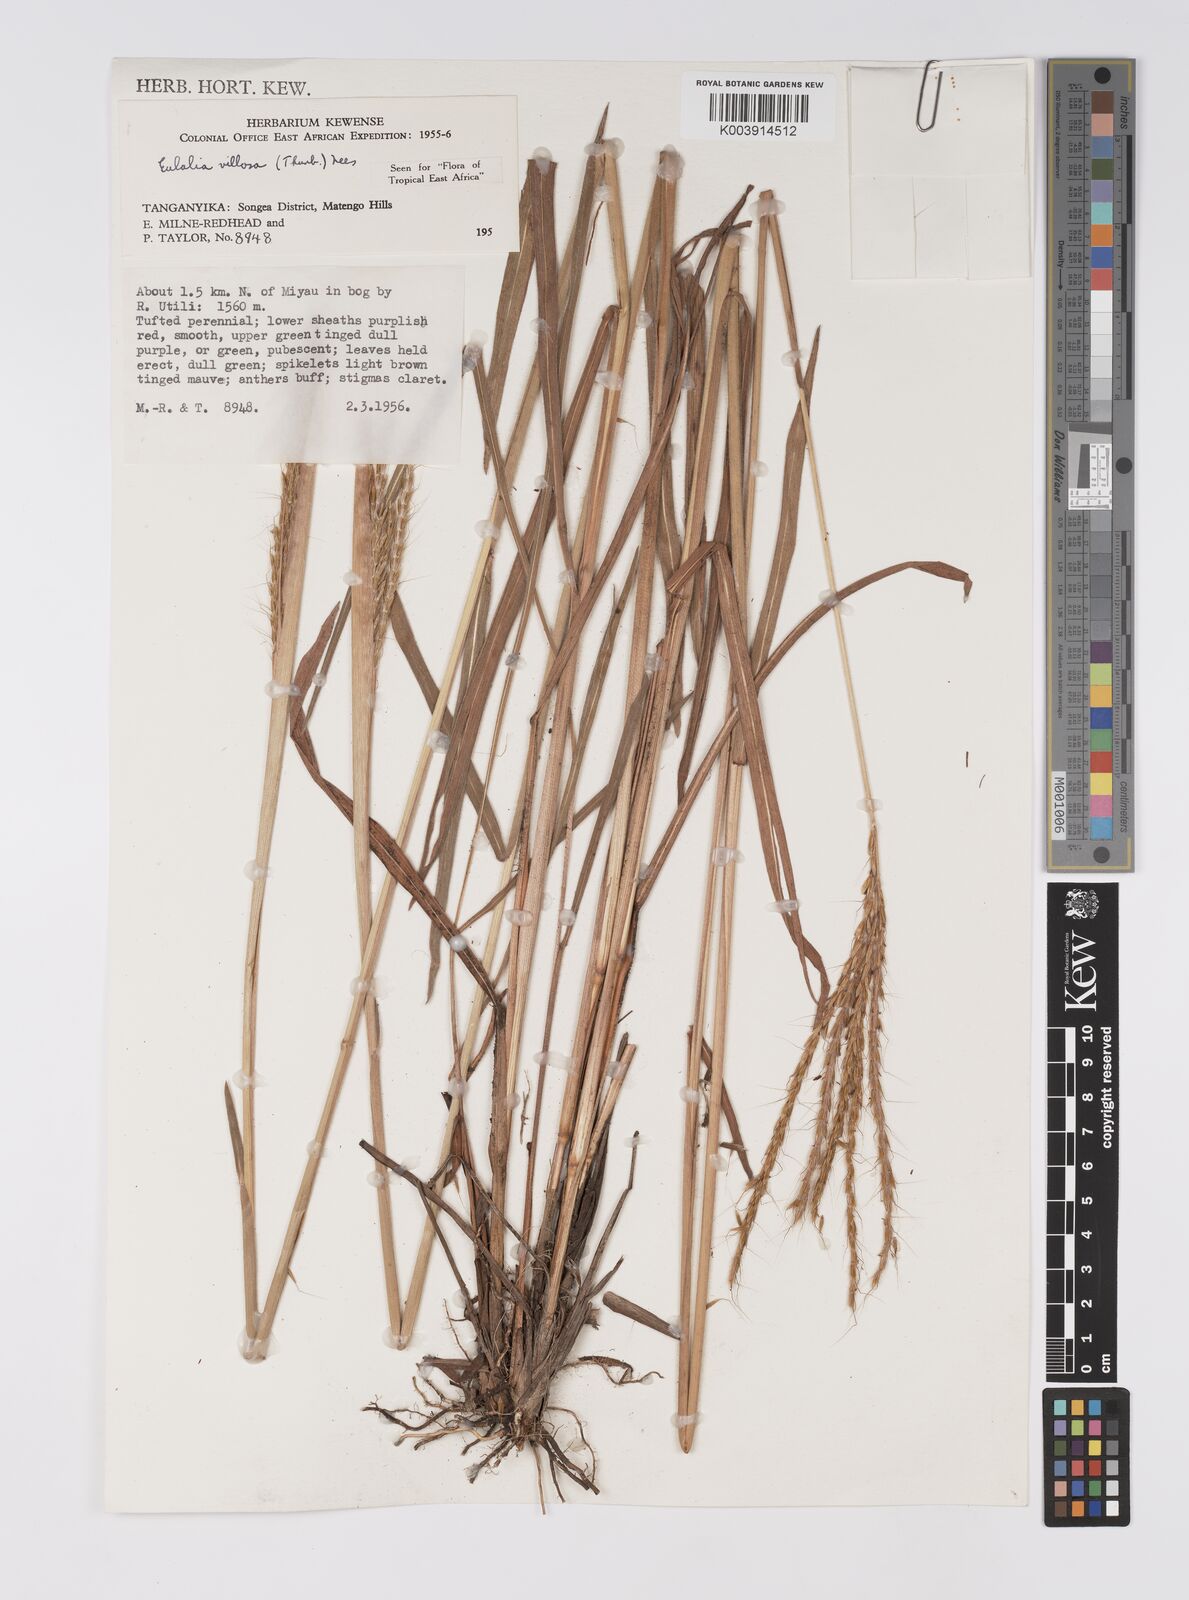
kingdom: Plantae
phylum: Tracheophyta
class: Liliopsida
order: Poales
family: Poaceae
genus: Eulalia
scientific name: Eulalia villosa
